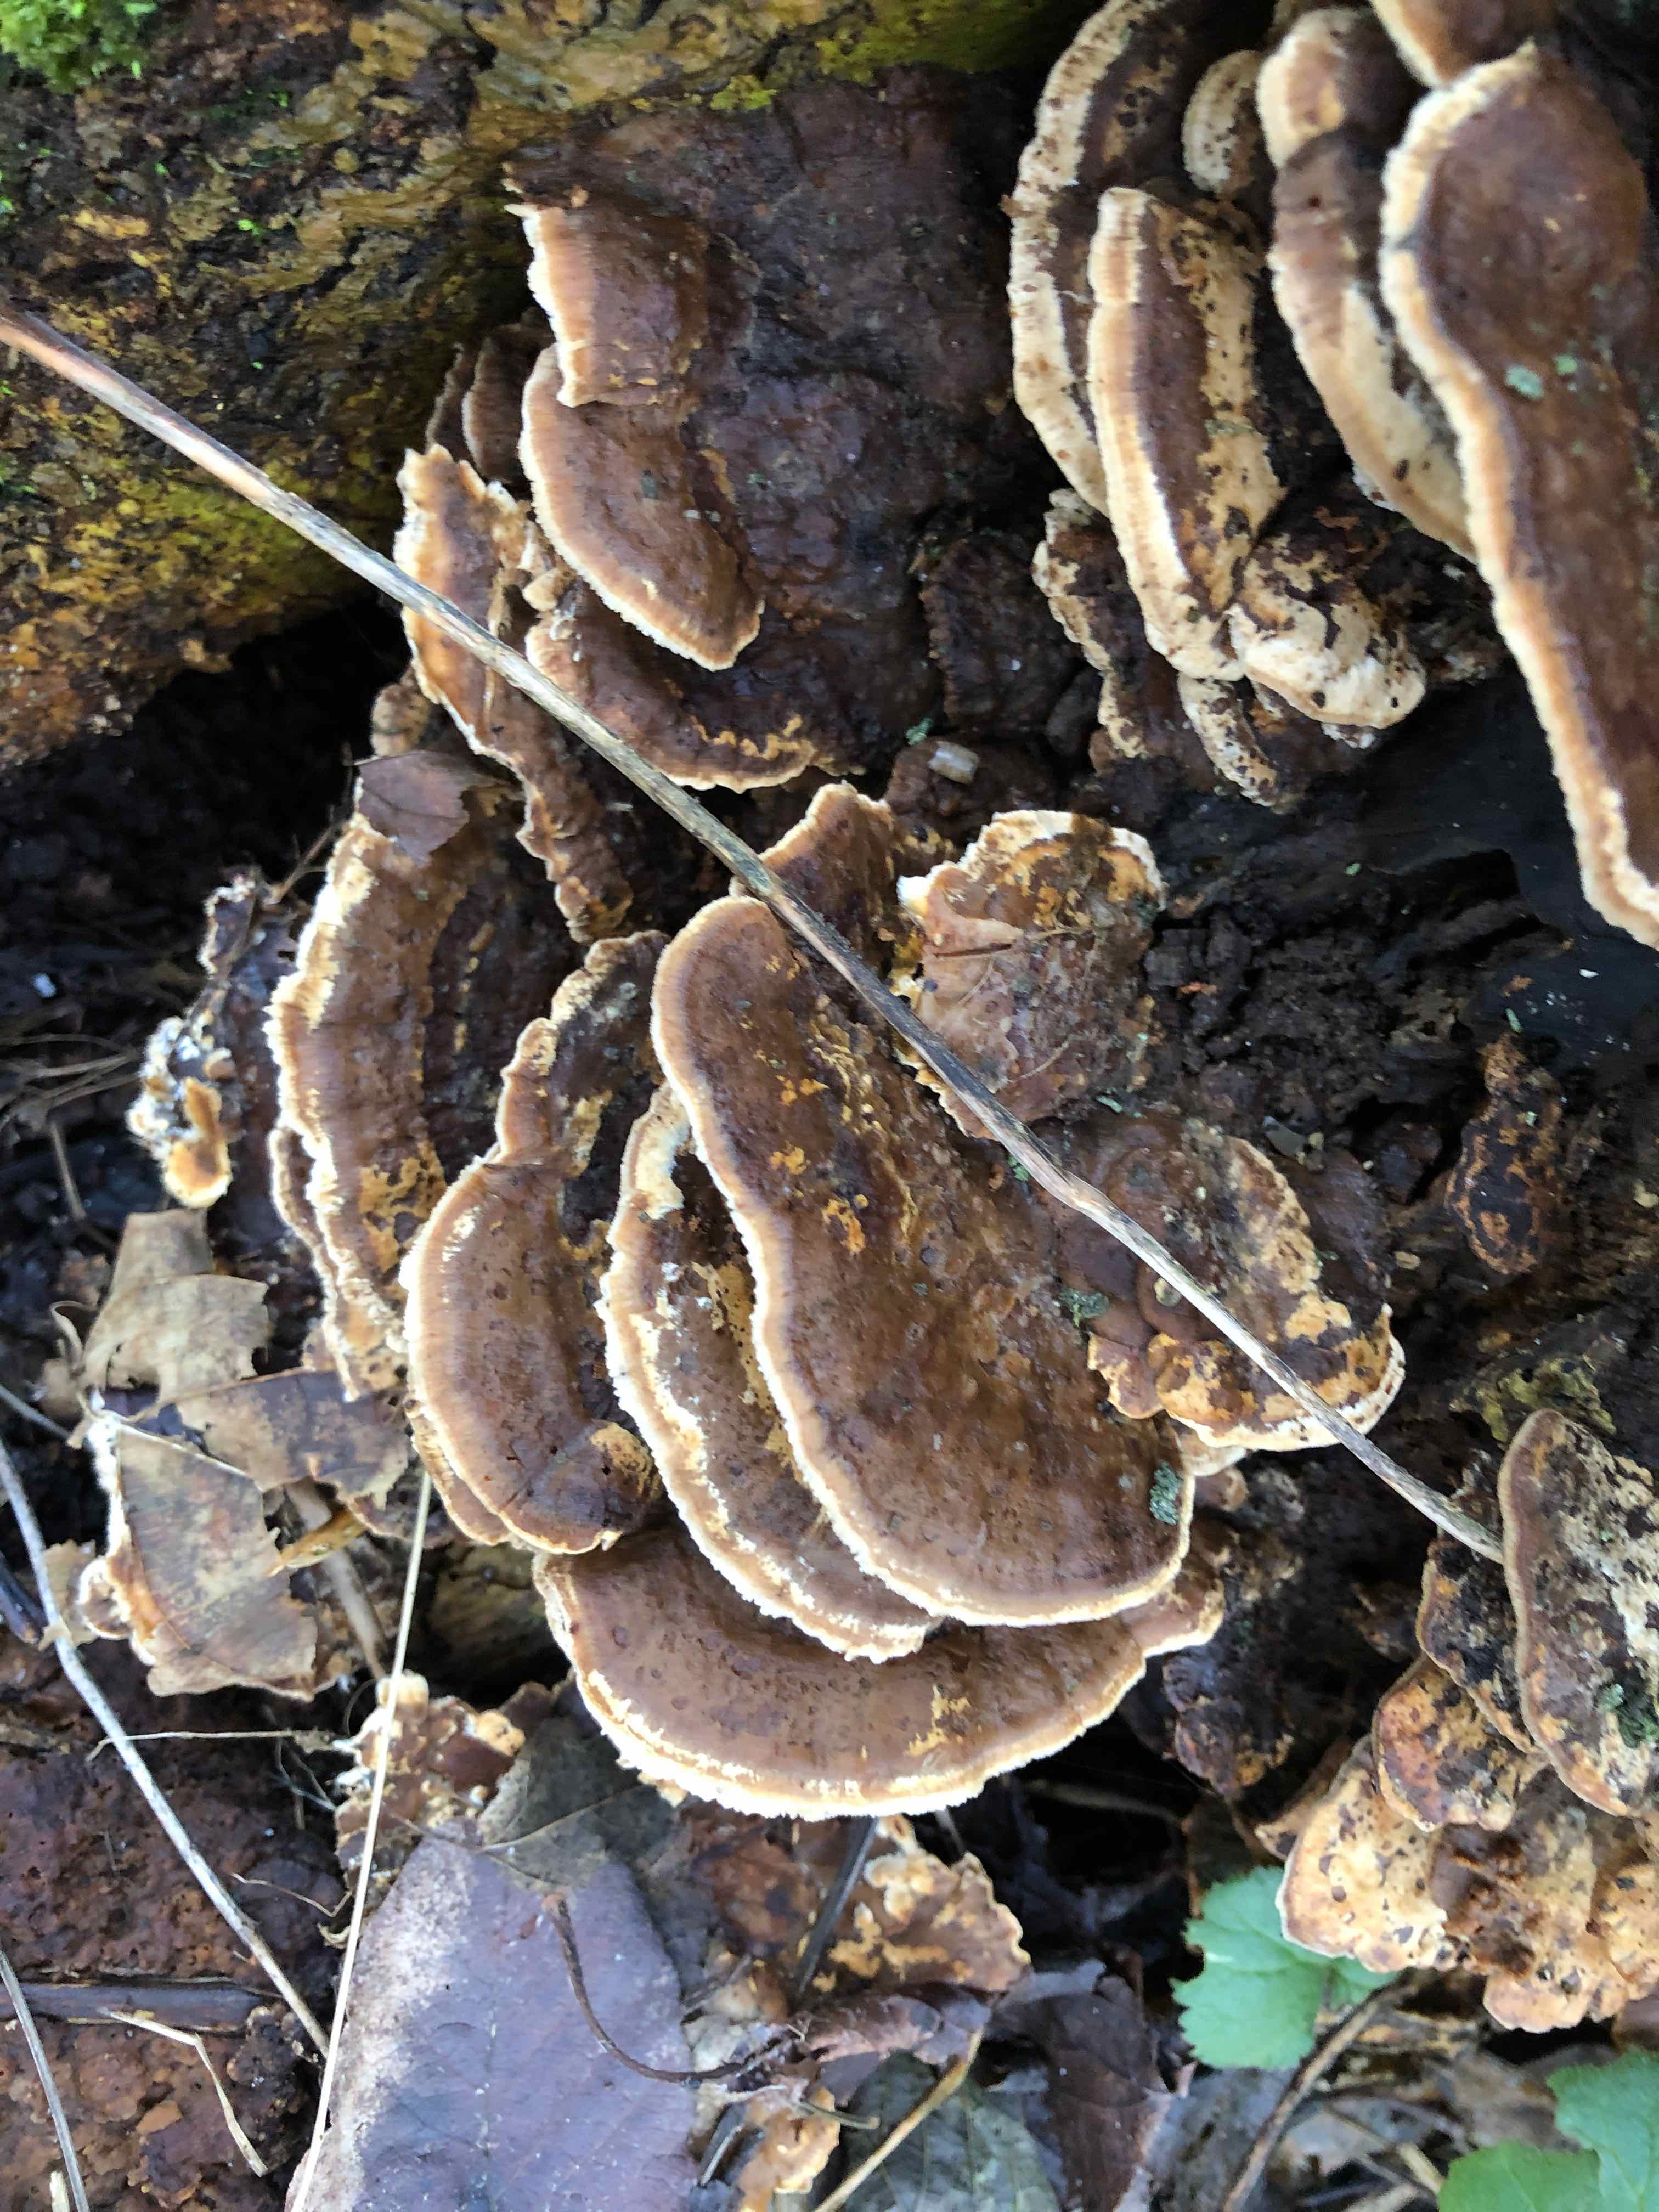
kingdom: Fungi
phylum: Basidiomycota
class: Agaricomycetes
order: Polyporales
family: Phanerochaetaceae
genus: Bjerkandera
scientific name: Bjerkandera fumosa
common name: grågul sodporesvamp
